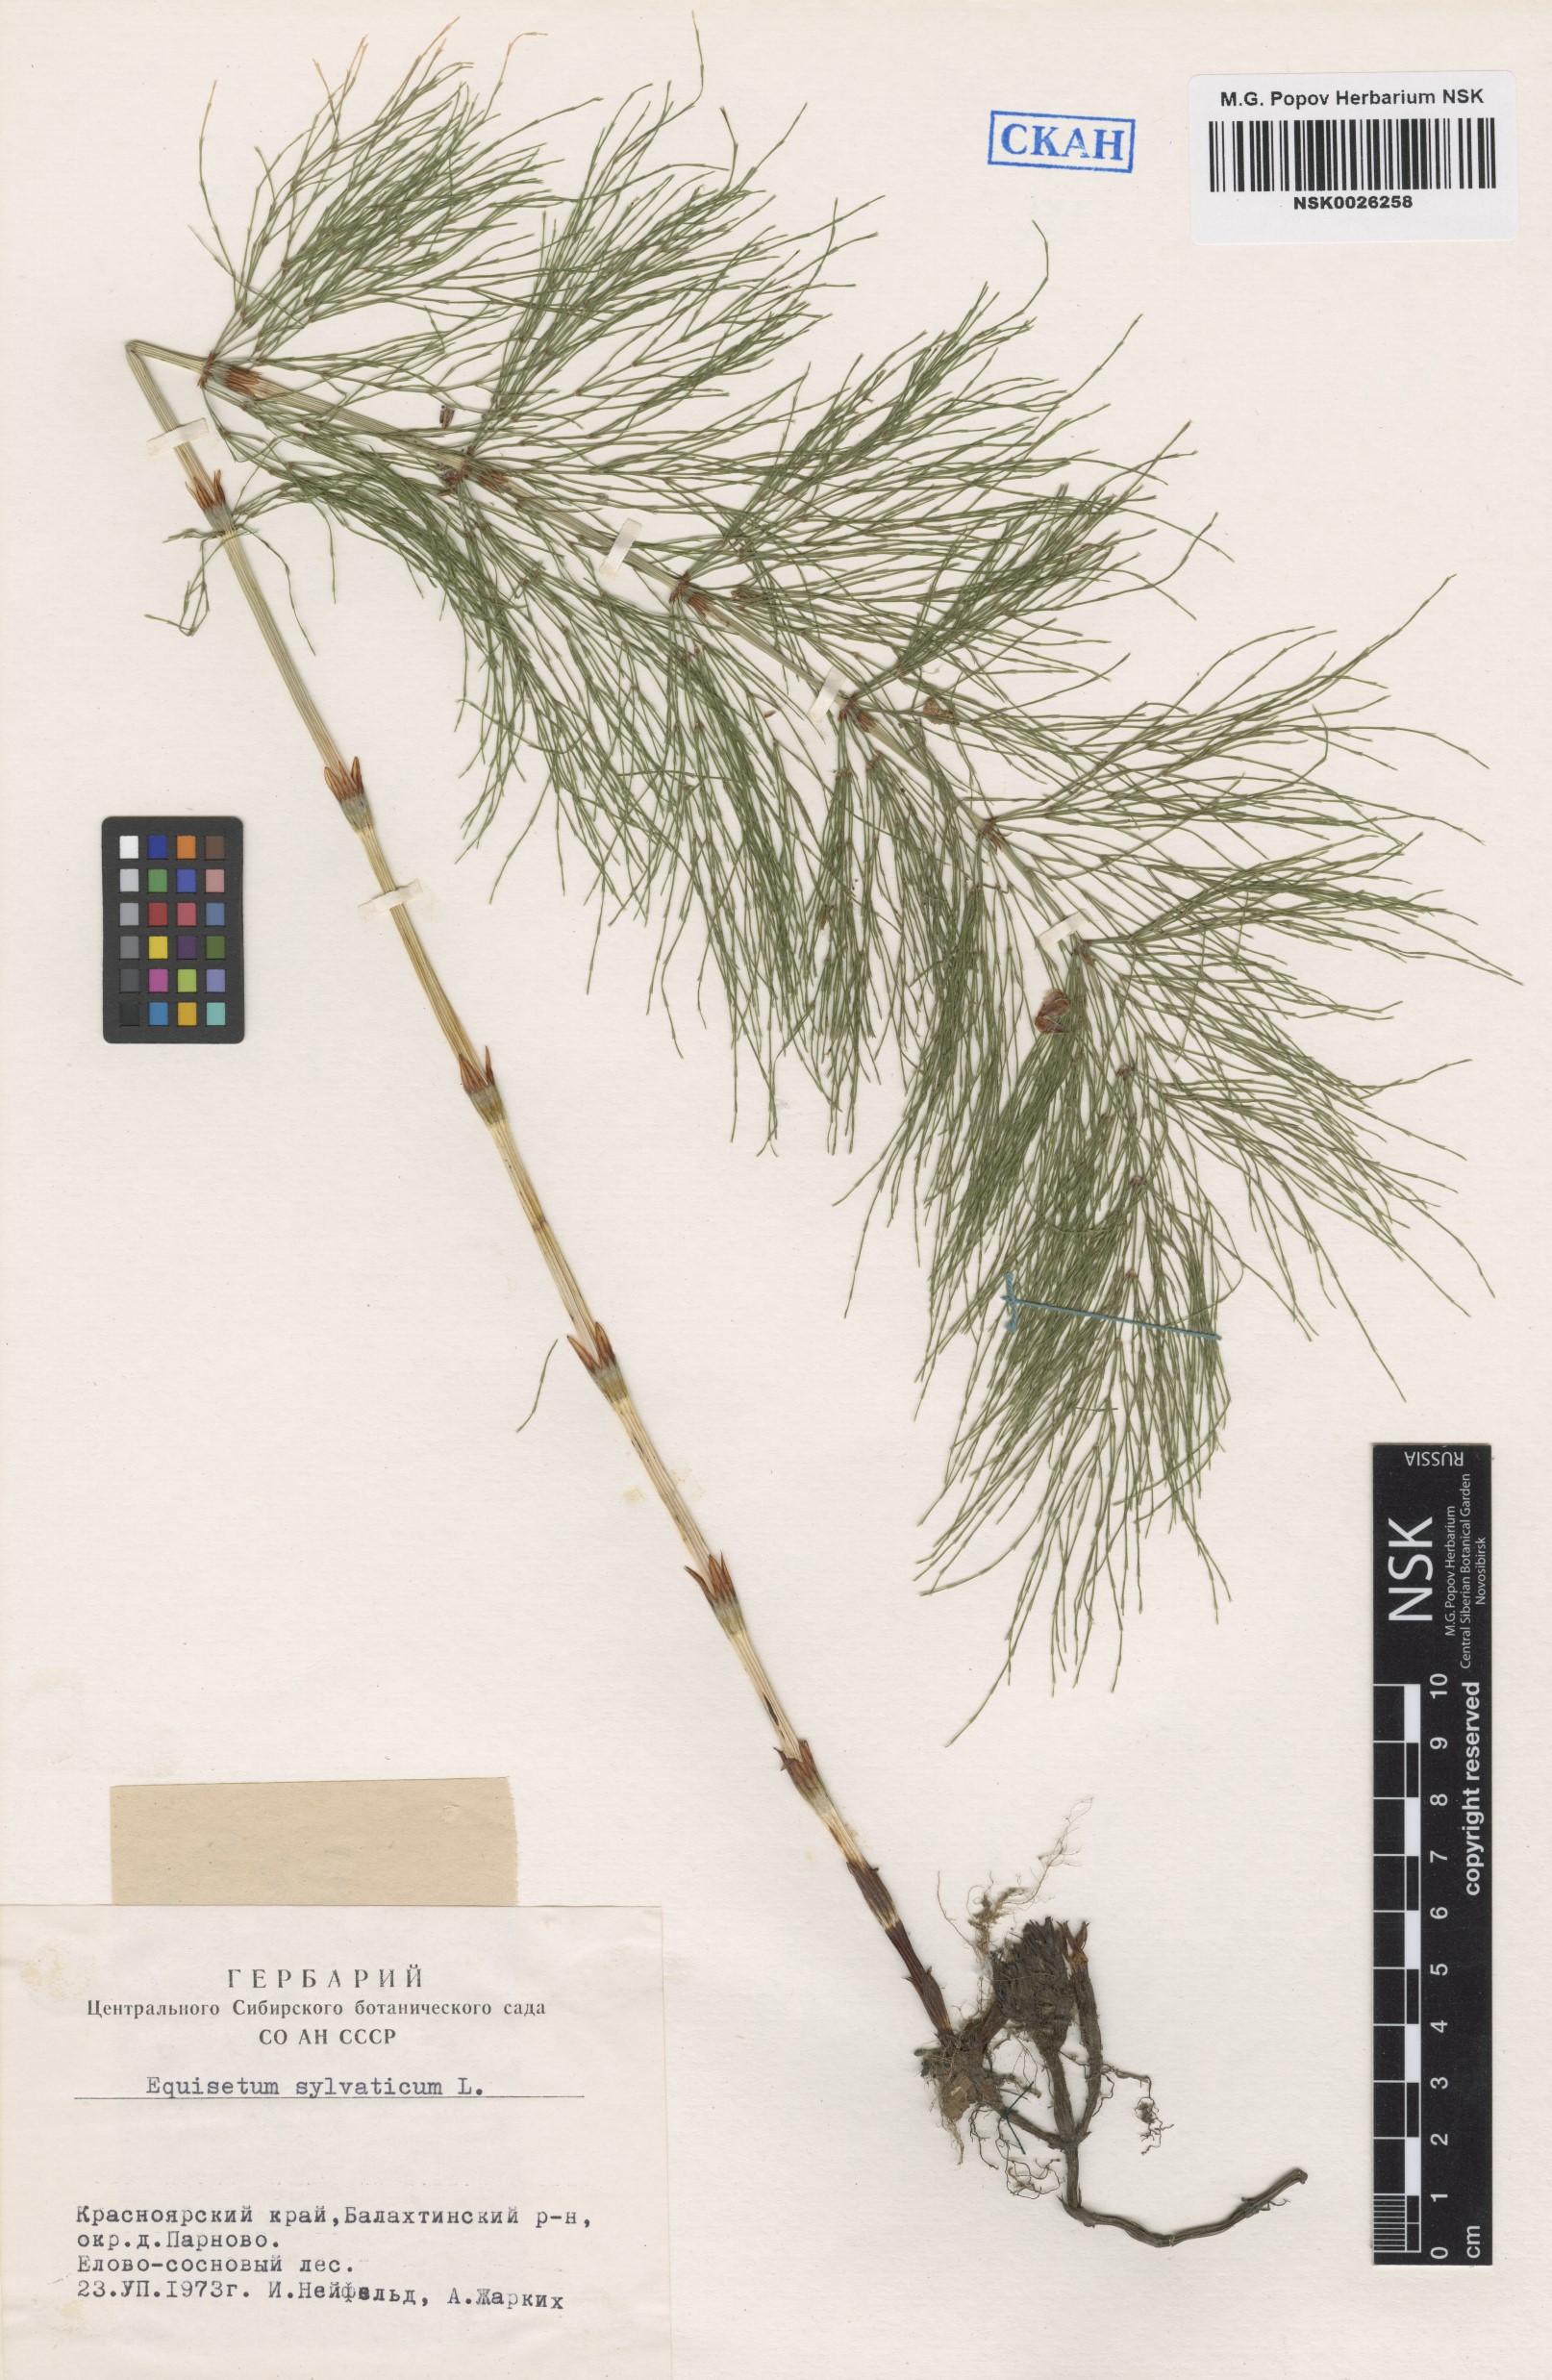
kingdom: Plantae
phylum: Tracheophyta
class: Polypodiopsida
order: Equisetales
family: Equisetaceae
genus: Equisetum
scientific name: Equisetum sylvaticum
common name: Wood horsetail
